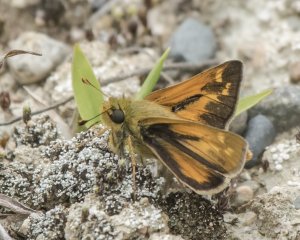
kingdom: Animalia
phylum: Arthropoda
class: Insecta
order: Lepidoptera
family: Hesperiidae
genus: Polites
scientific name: Polites
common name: Long Dash Skipper
